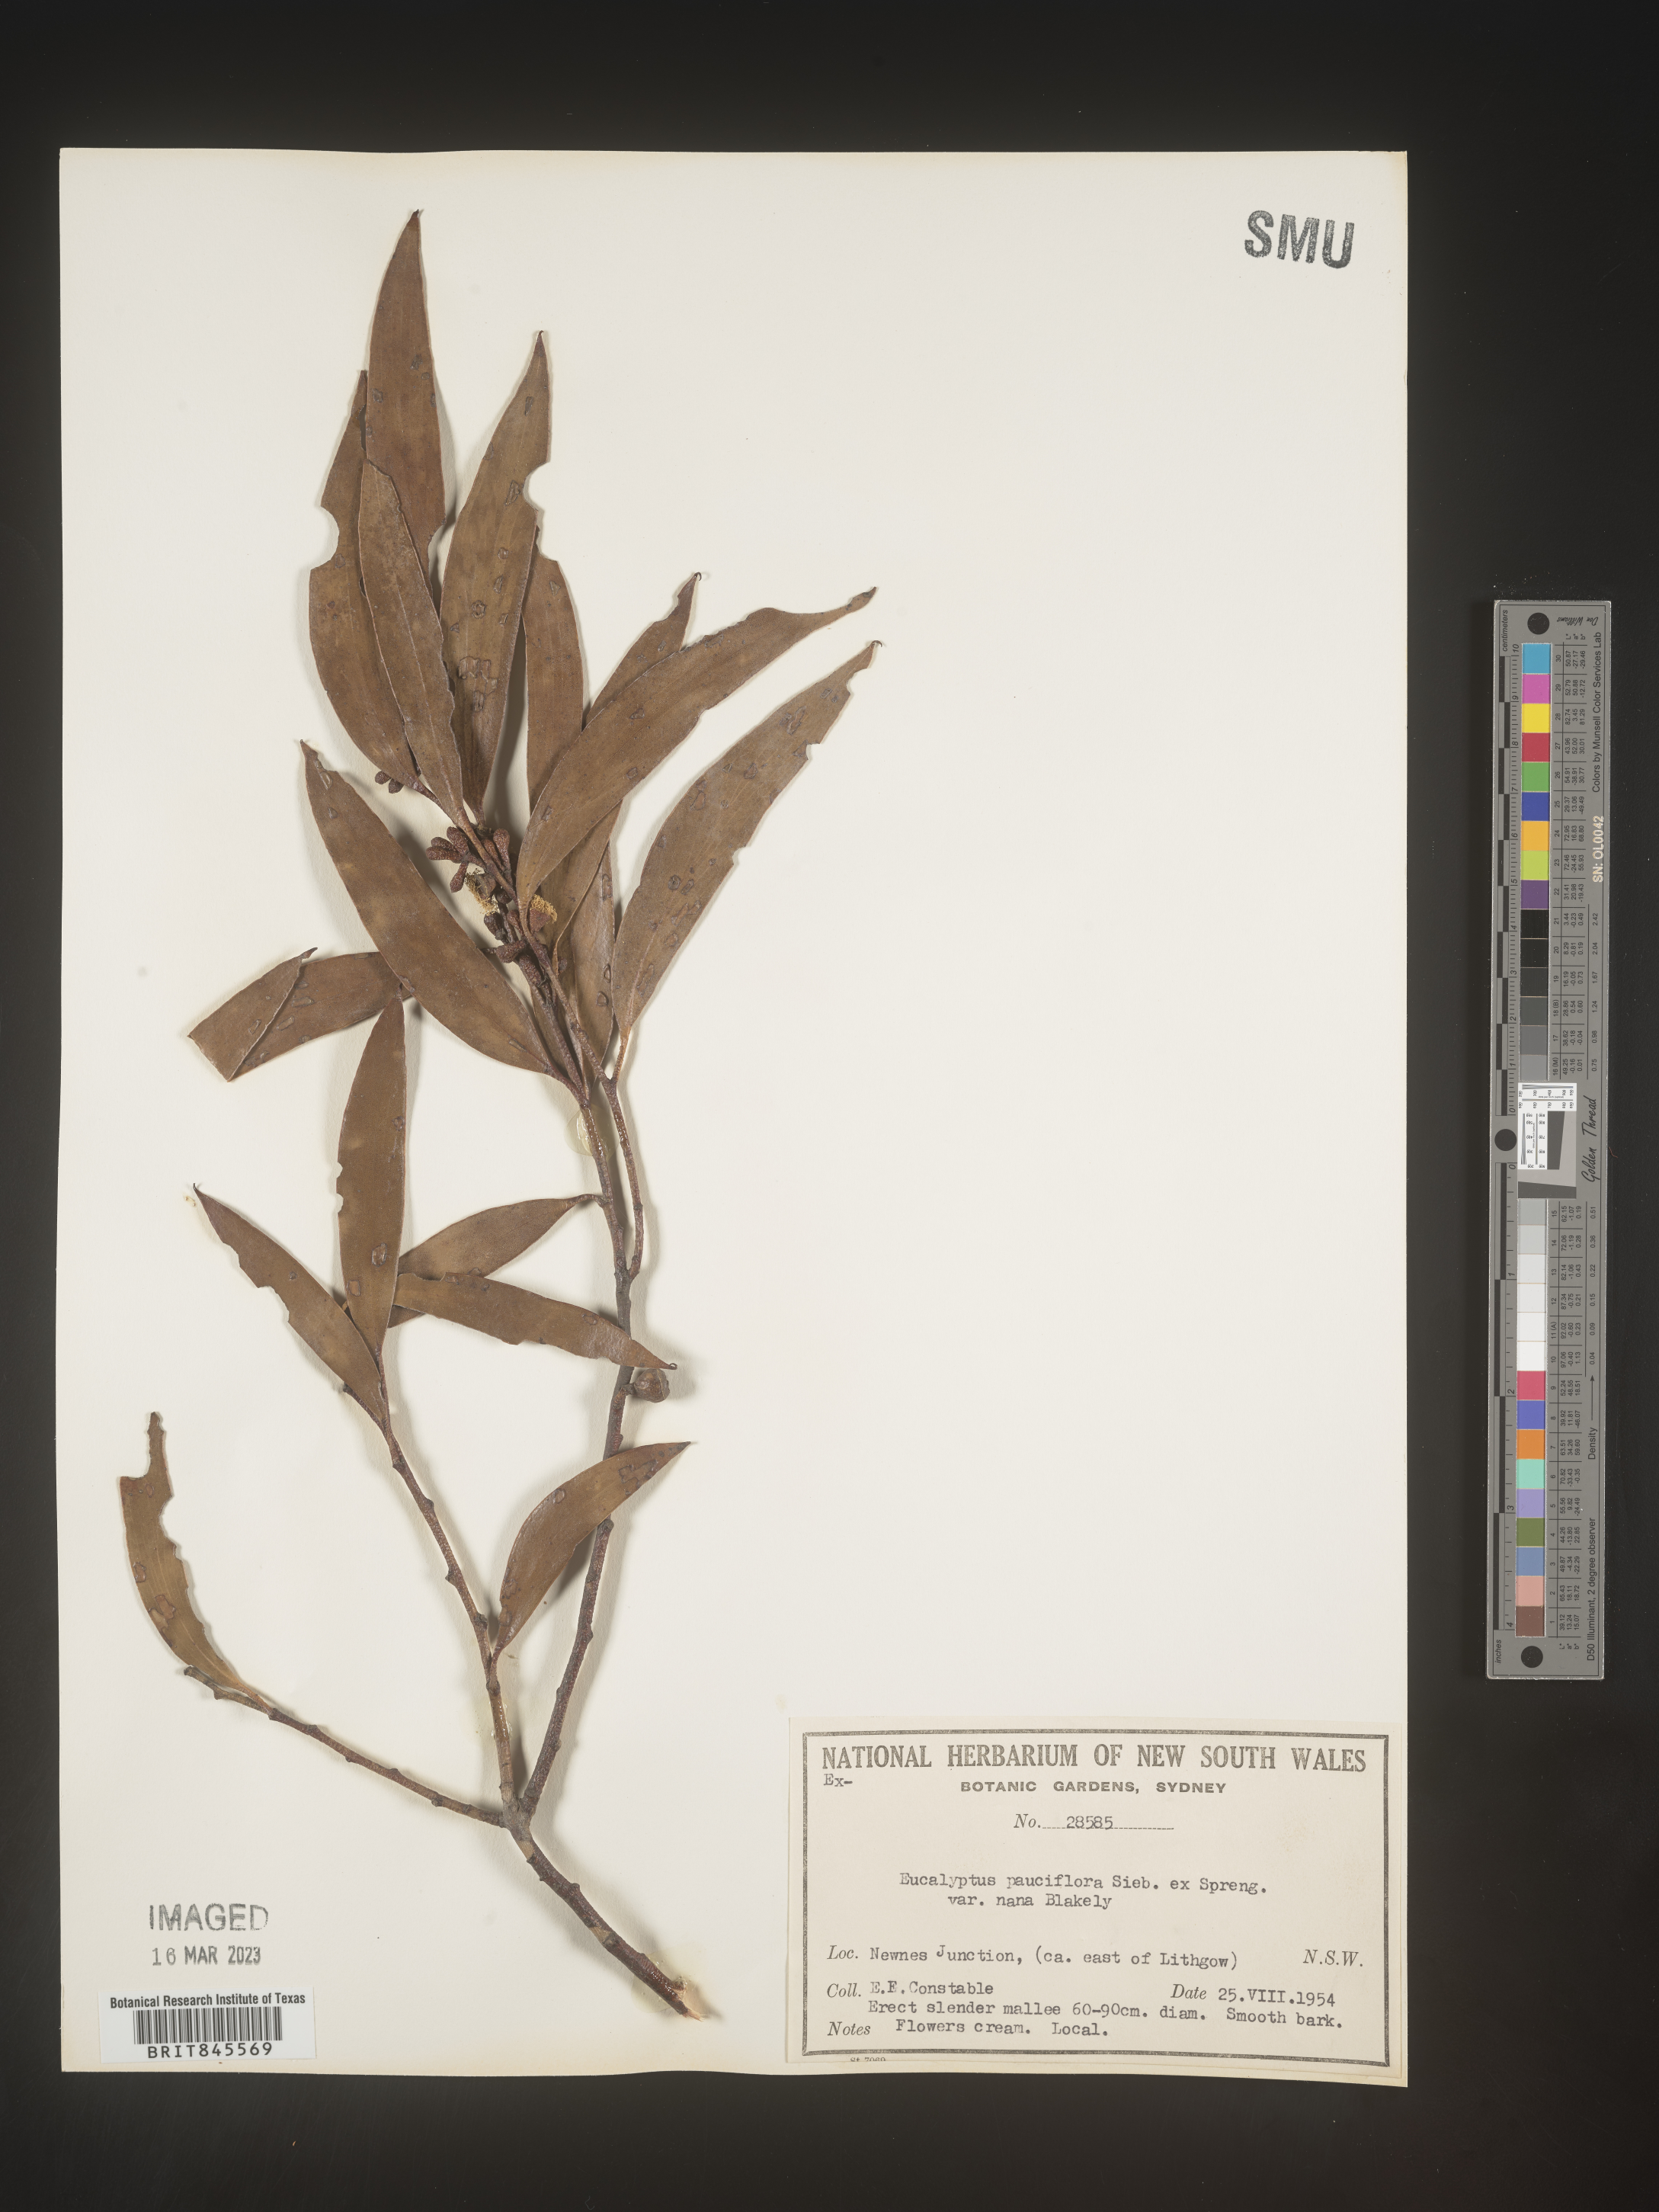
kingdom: Plantae
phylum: Tracheophyta
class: Magnoliopsida
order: Myrtales
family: Myrtaceae
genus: Eucalyptus
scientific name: Eucalyptus
